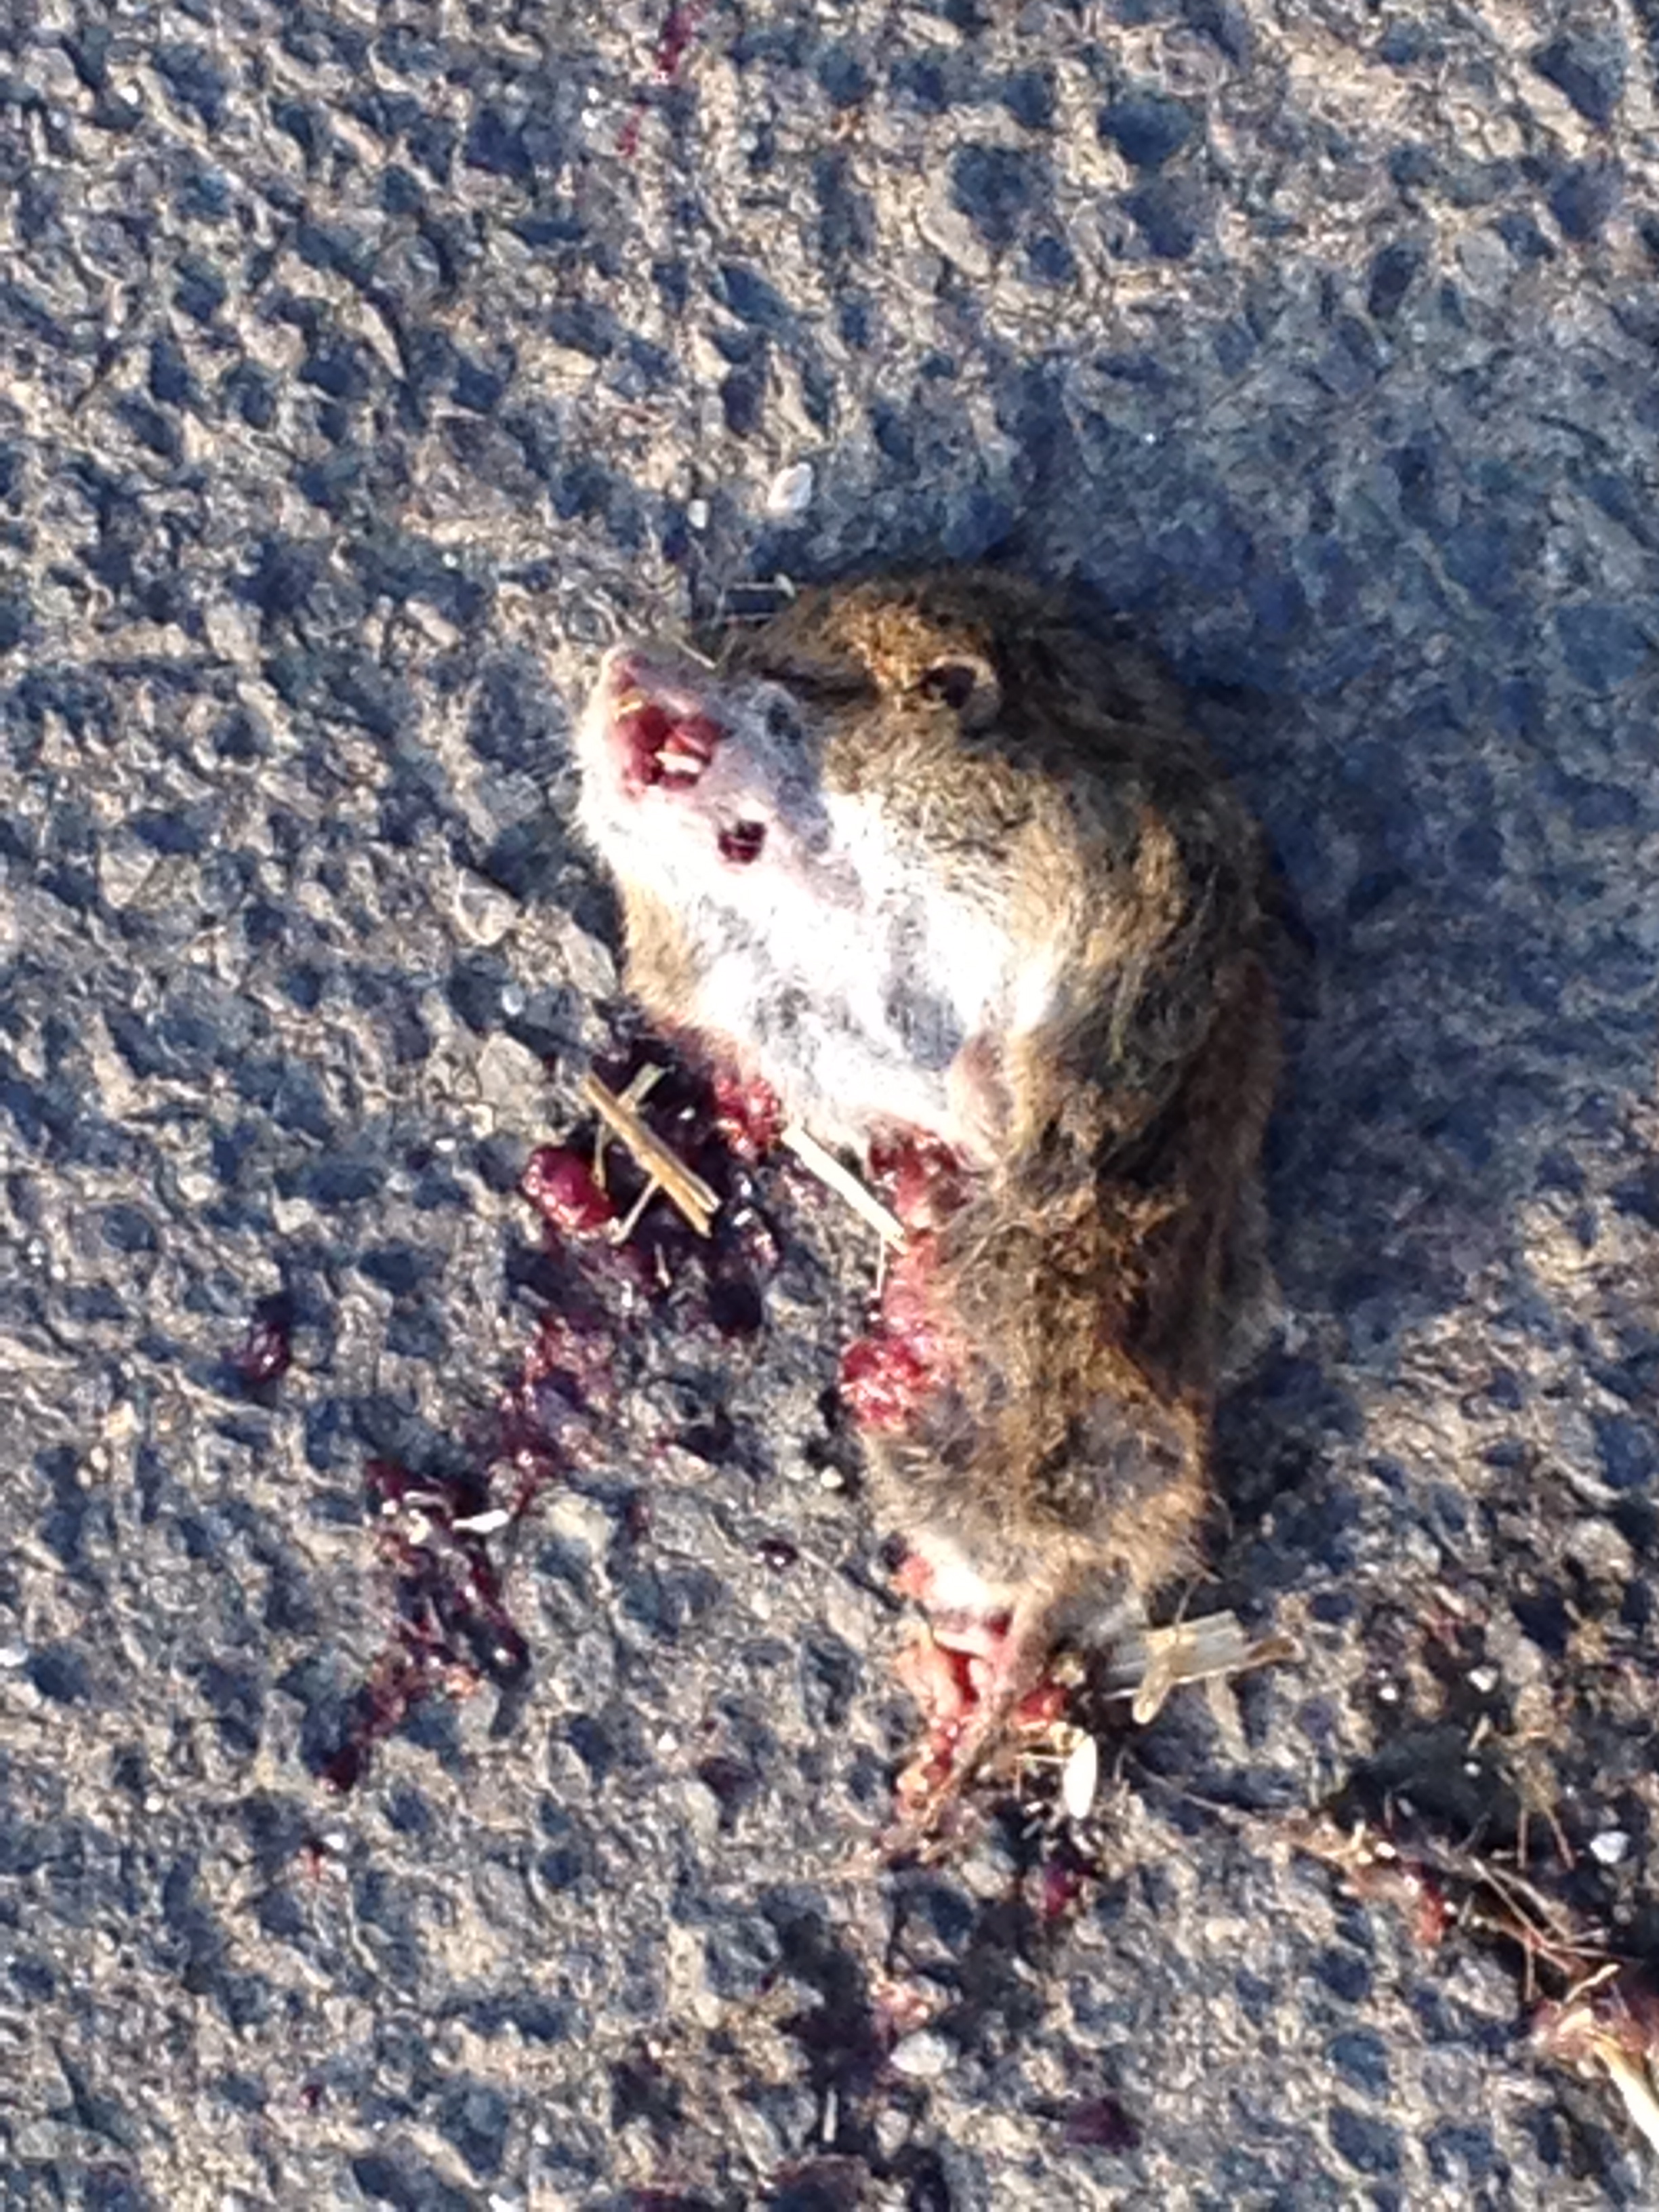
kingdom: Animalia
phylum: Chordata
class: Mammalia
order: Rodentia
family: Cricetidae
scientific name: Cricetidae
